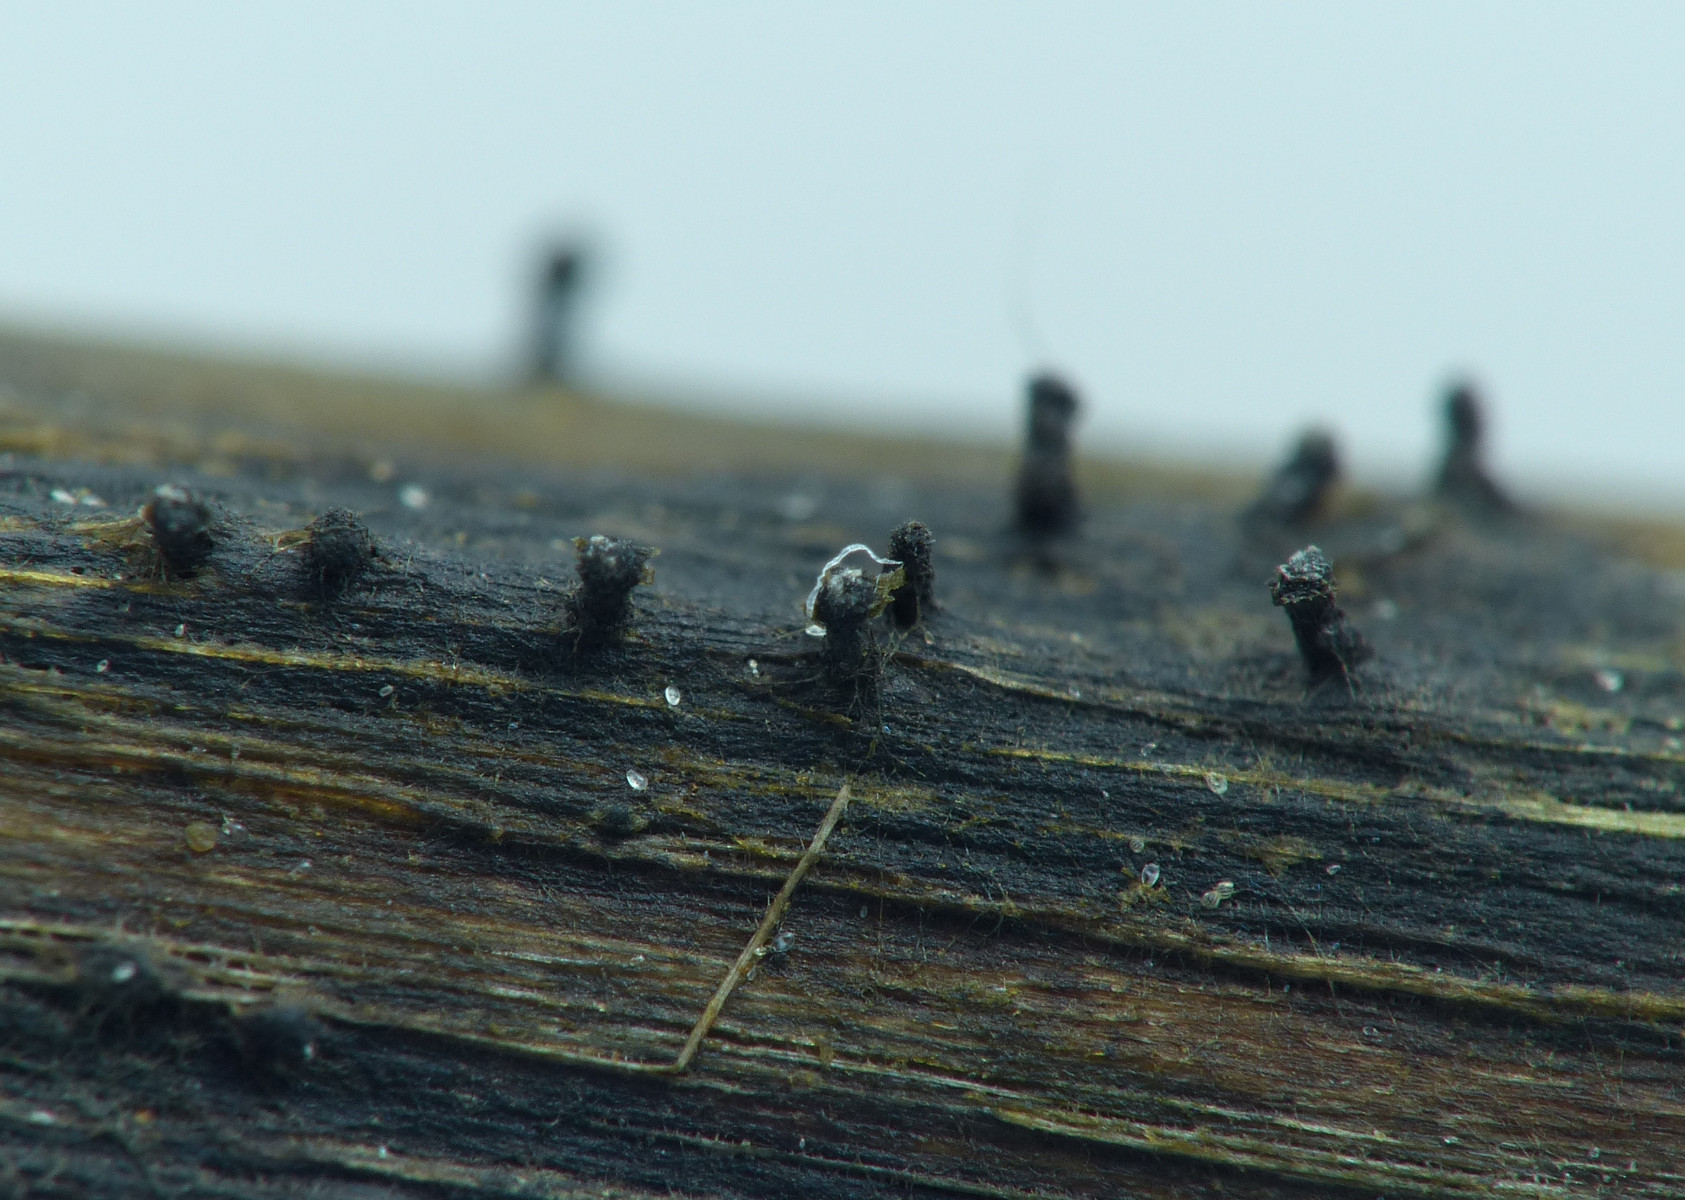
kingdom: Fungi
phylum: Ascomycota
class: Sordariomycetes
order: Diaporthales
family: Diaporthaceae
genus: Diaporthe
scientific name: Diaporthe dulcamarae
